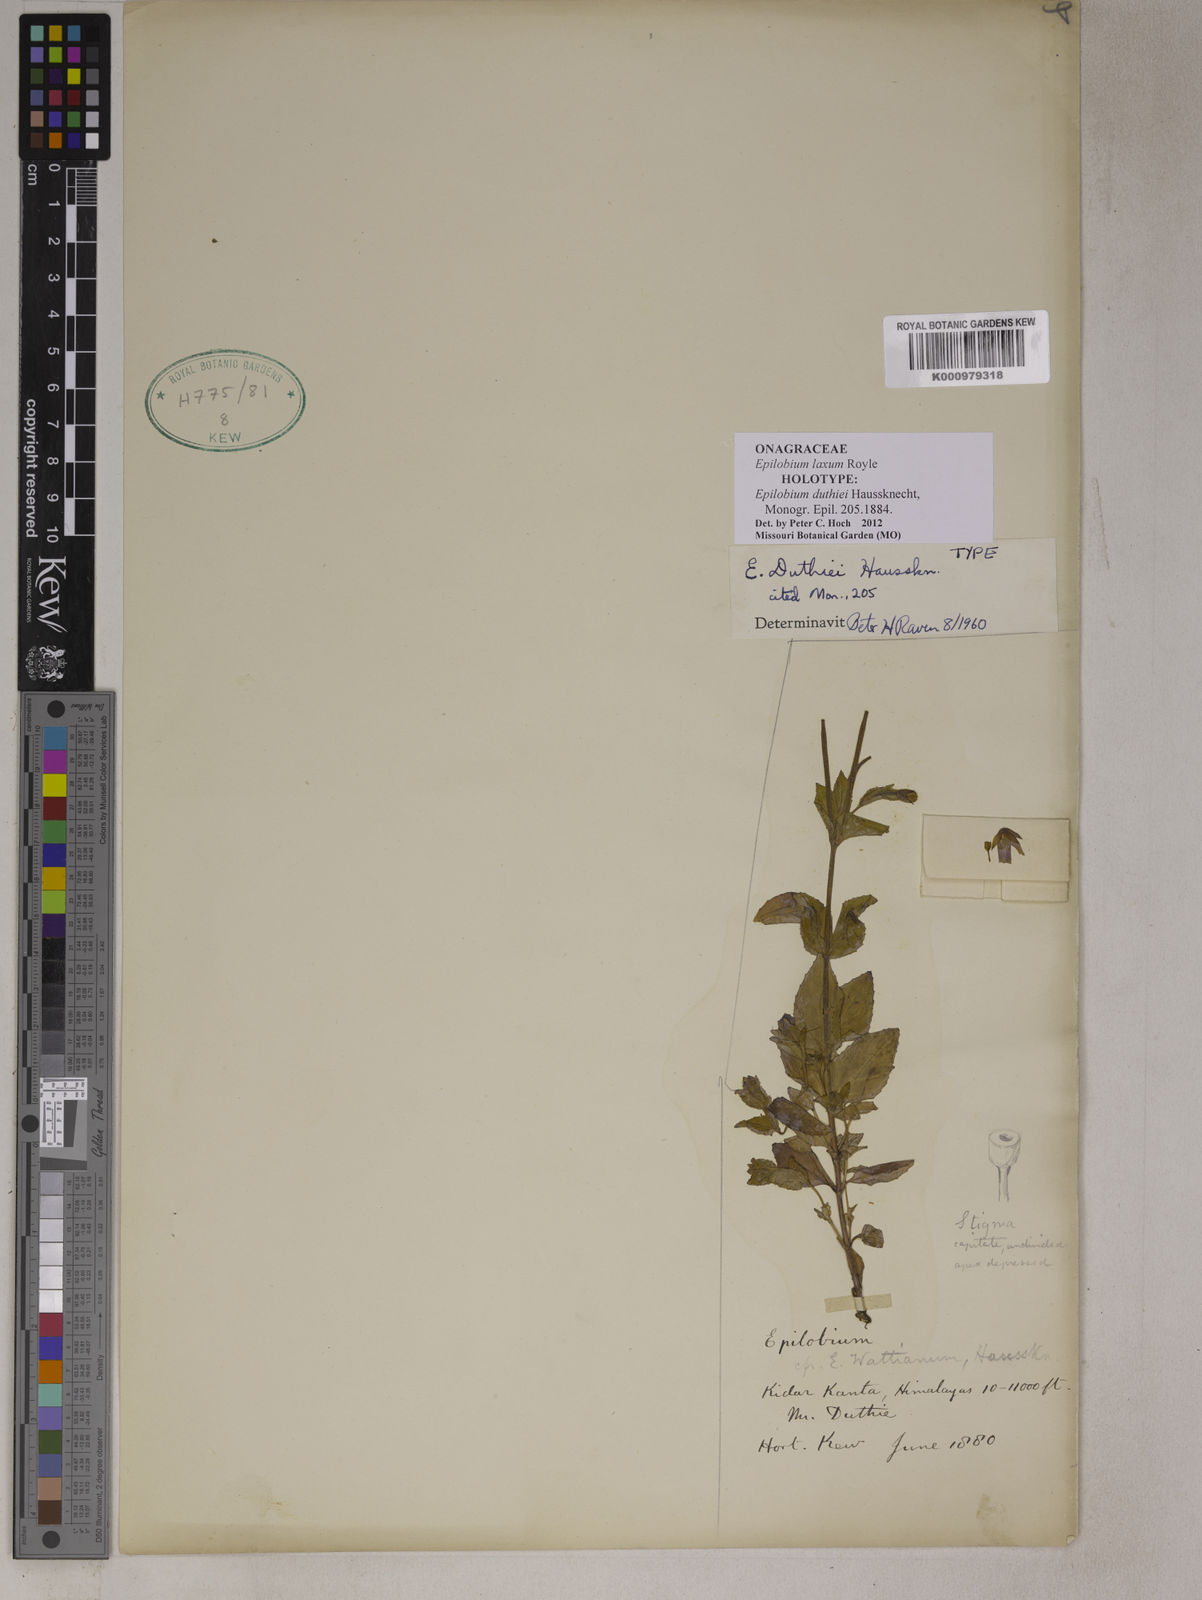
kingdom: Plantae
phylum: Tracheophyta
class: Magnoliopsida
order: Myrtales
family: Onagraceae
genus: Epilobium
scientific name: Epilobium laxum
